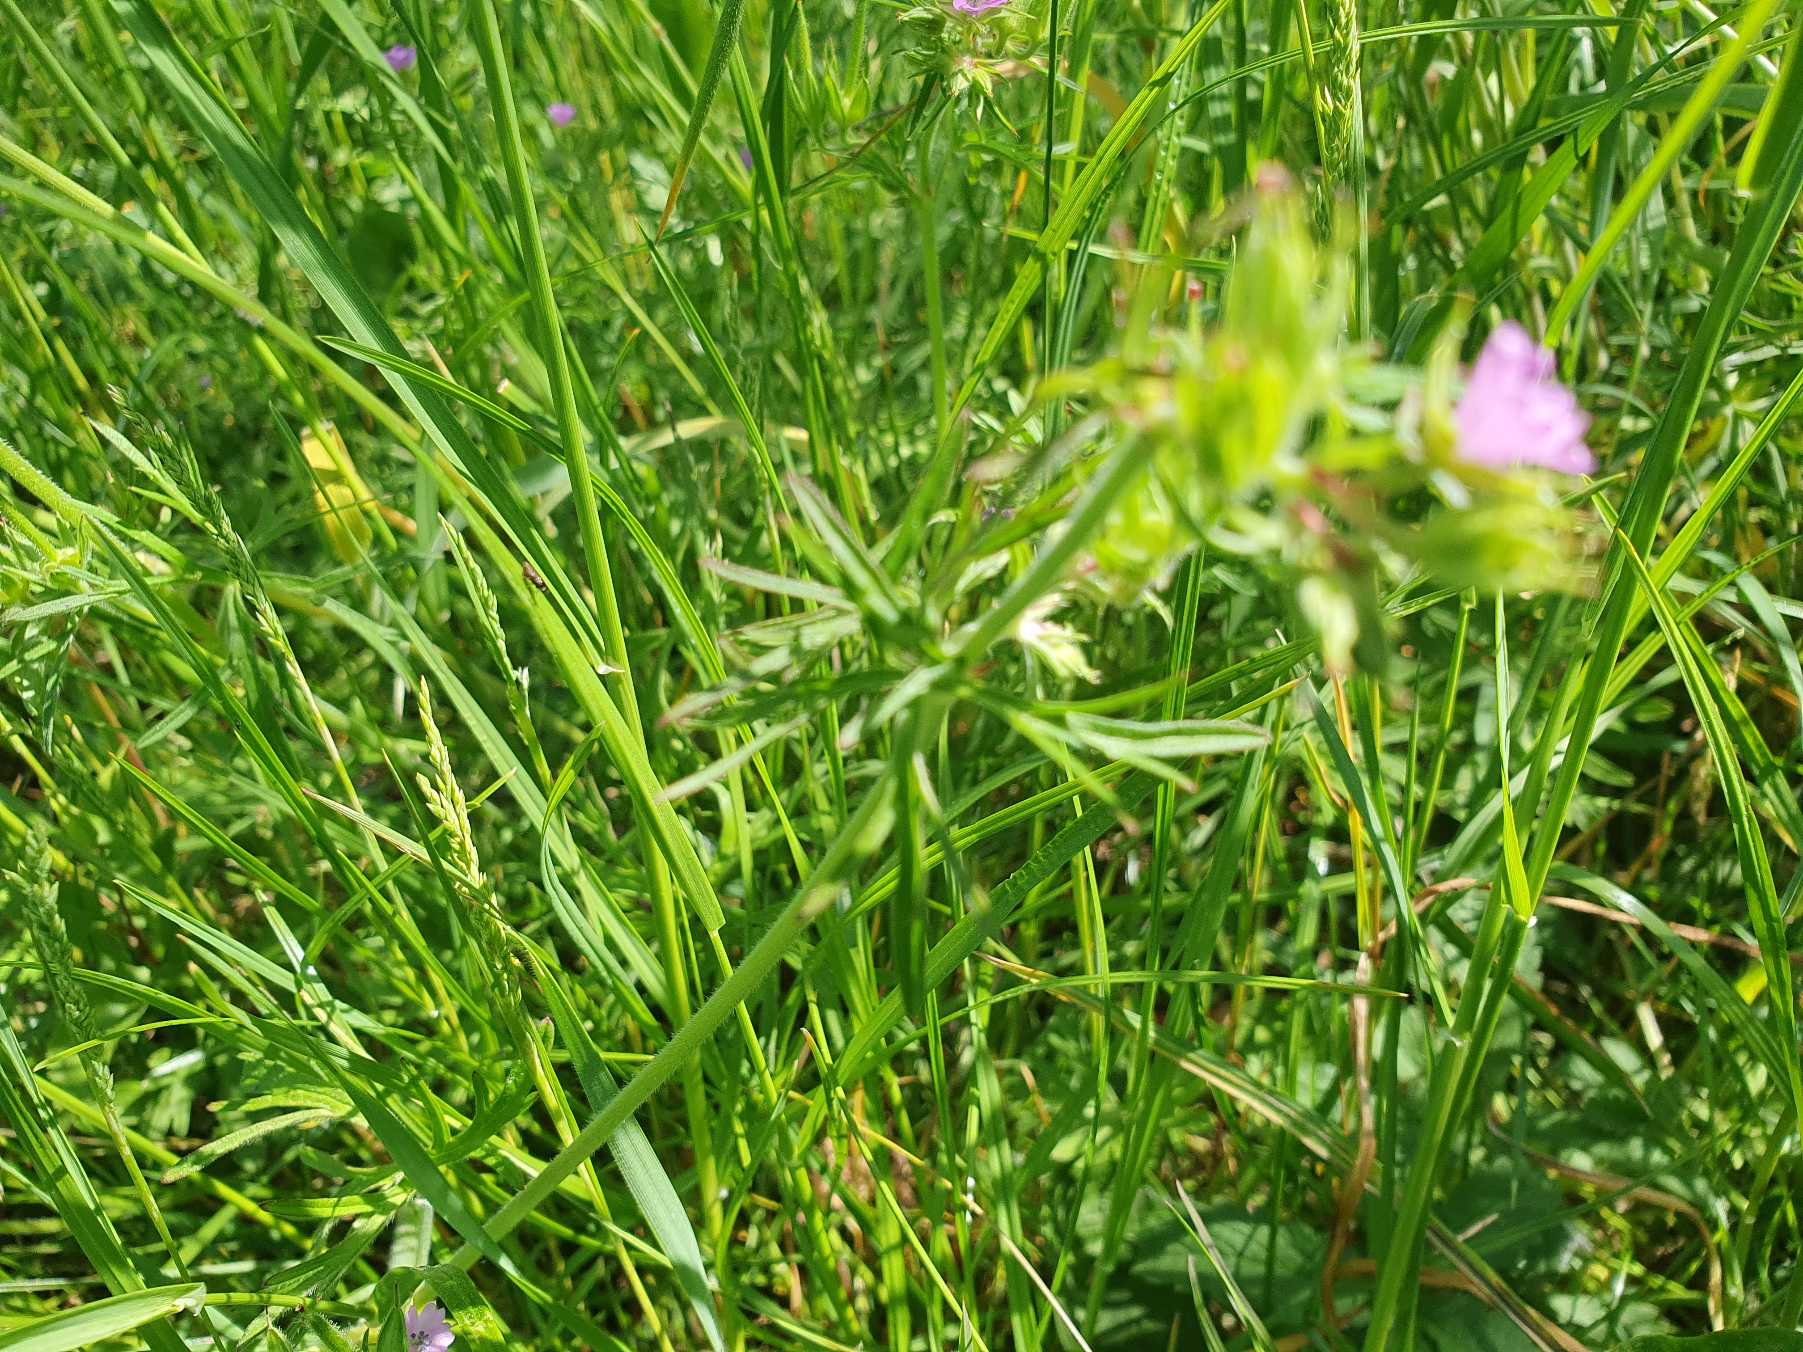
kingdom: Plantae
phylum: Tracheophyta
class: Magnoliopsida
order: Geraniales
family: Geraniaceae
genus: Geranium
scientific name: Geranium dissectum
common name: Kløftet storkenæb
